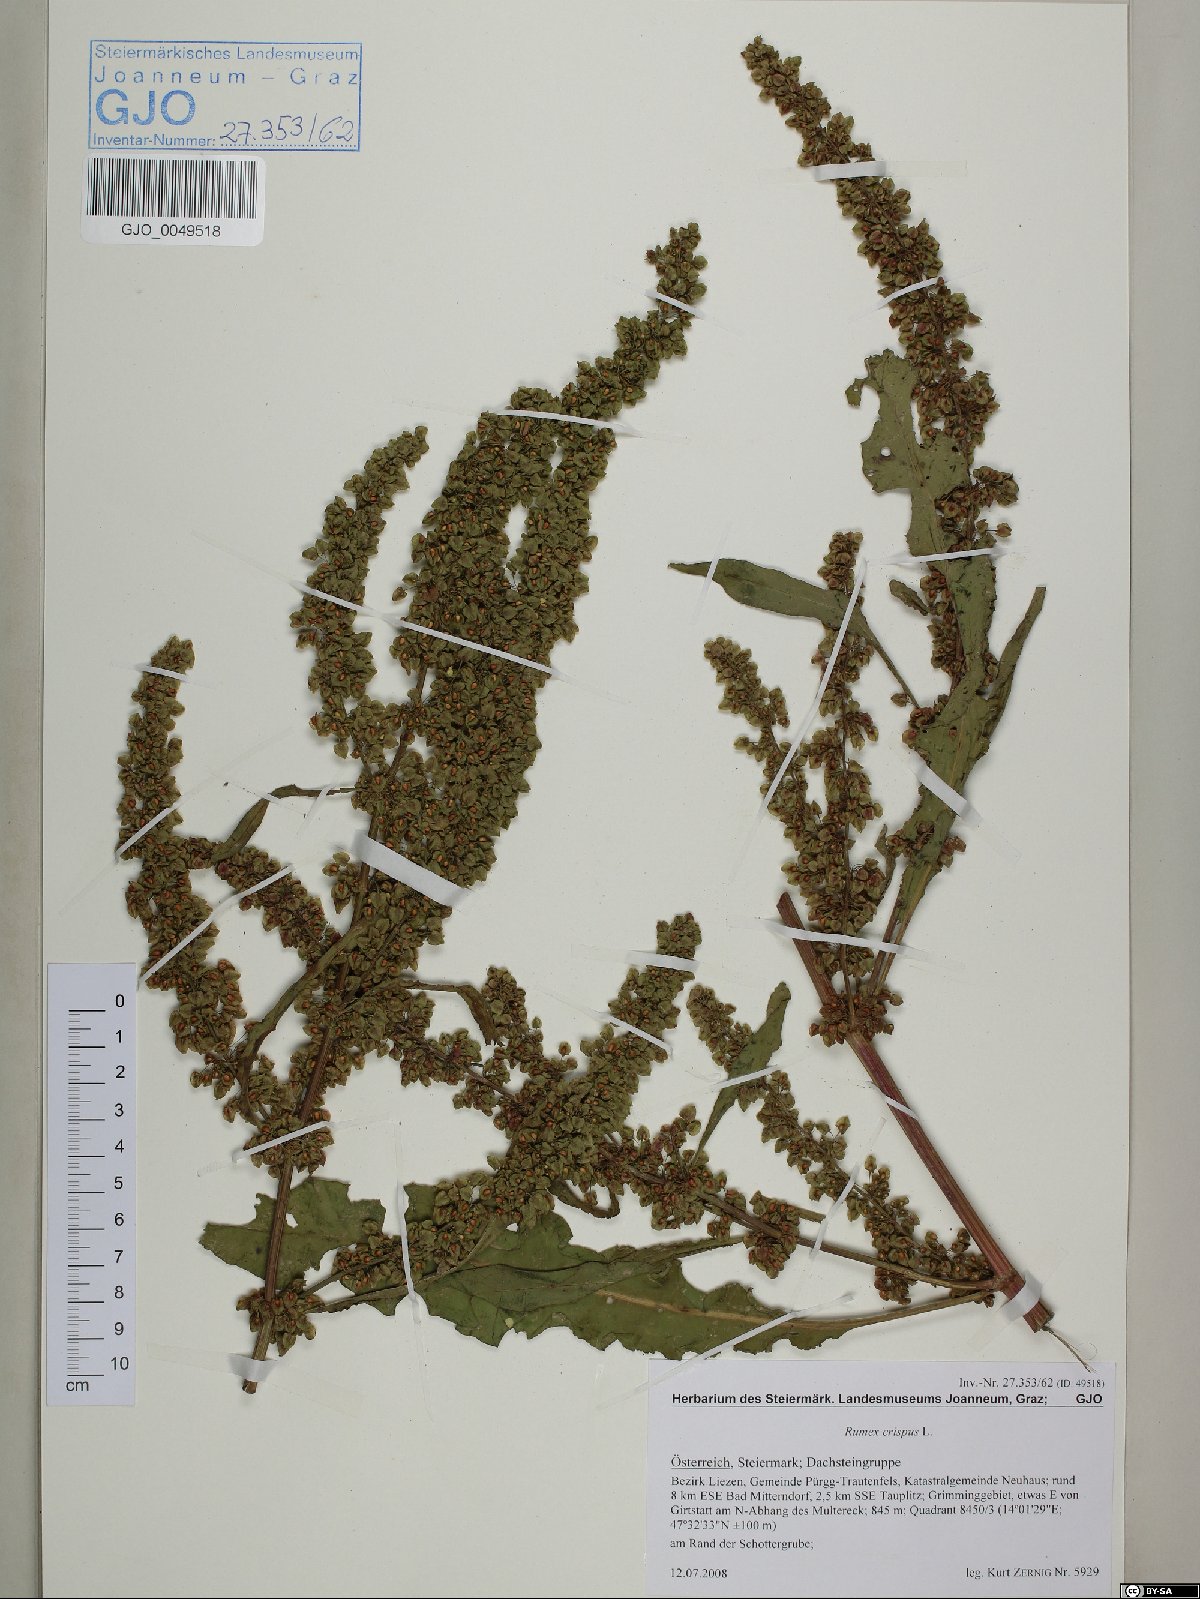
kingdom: Plantae
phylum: Tracheophyta
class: Magnoliopsida
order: Caryophyllales
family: Polygonaceae
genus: Rumex
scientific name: Rumex crispus
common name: Curled dock
